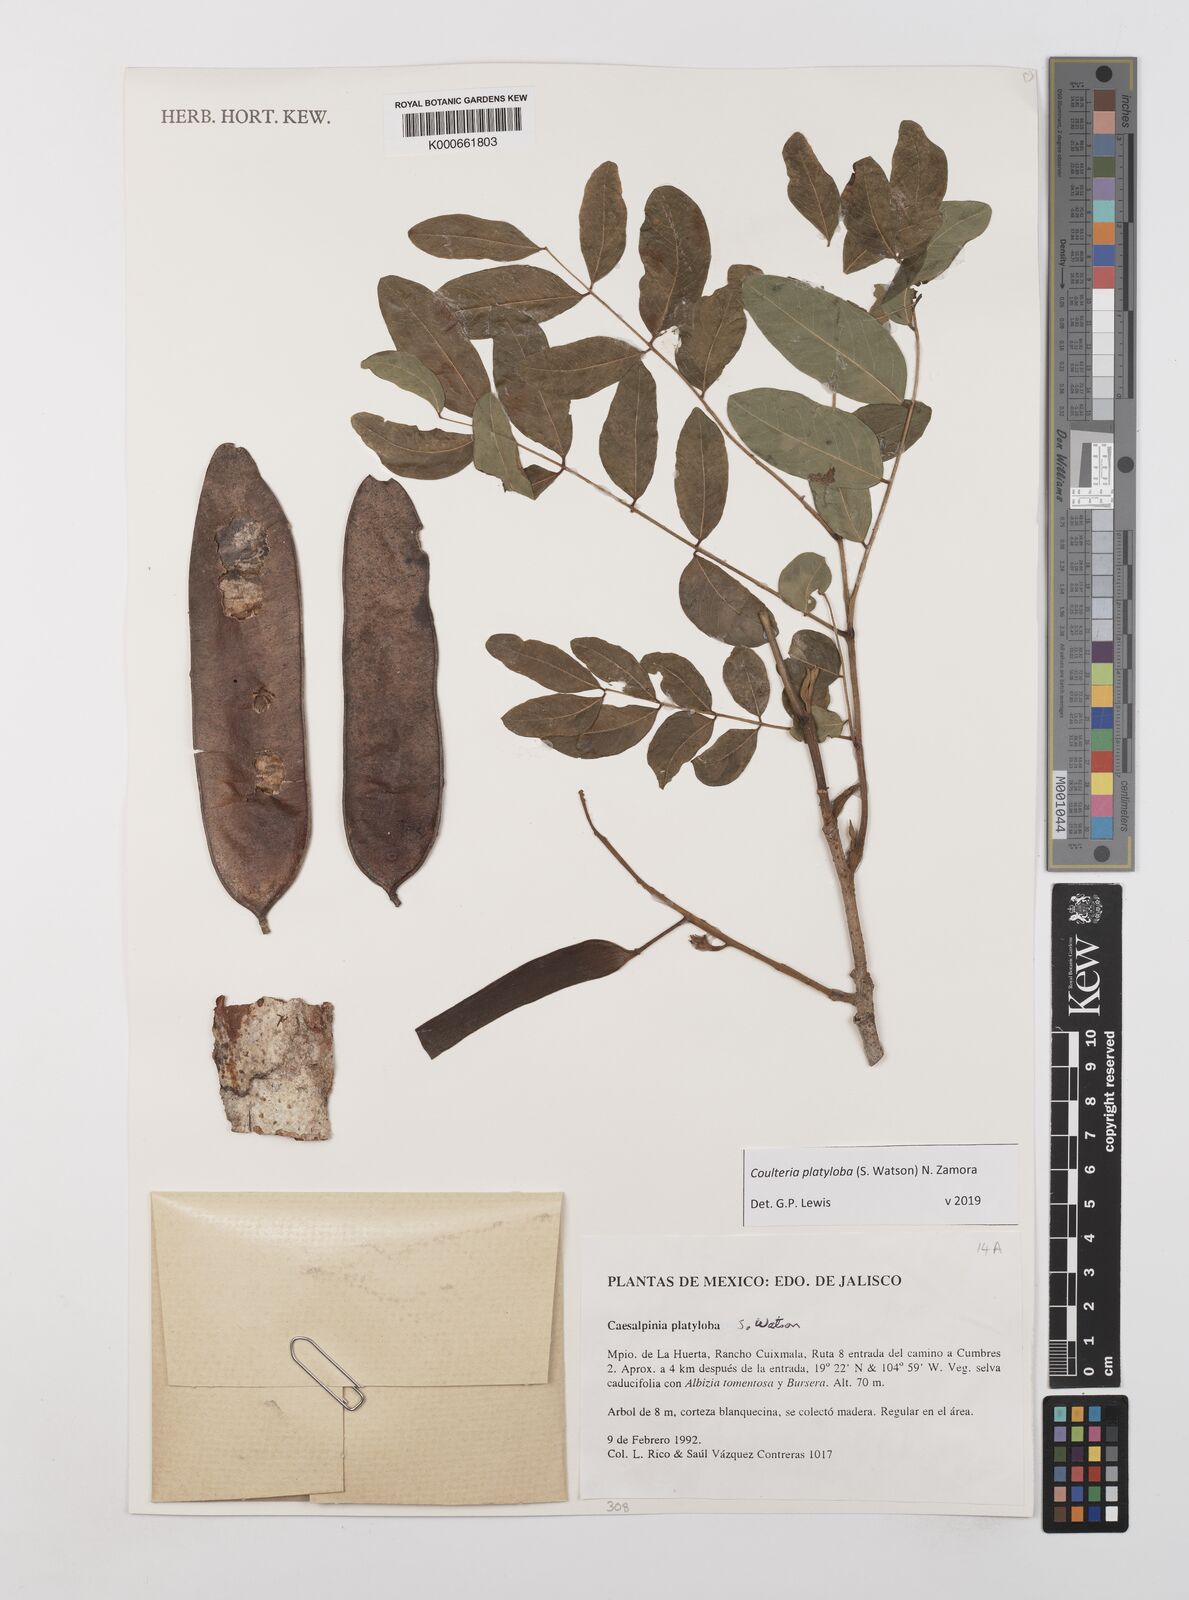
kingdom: Plantae
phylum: Tracheophyta
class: Magnoliopsida
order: Fabales
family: Fabaceae
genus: Coulteria
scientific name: Coulteria platyloba
